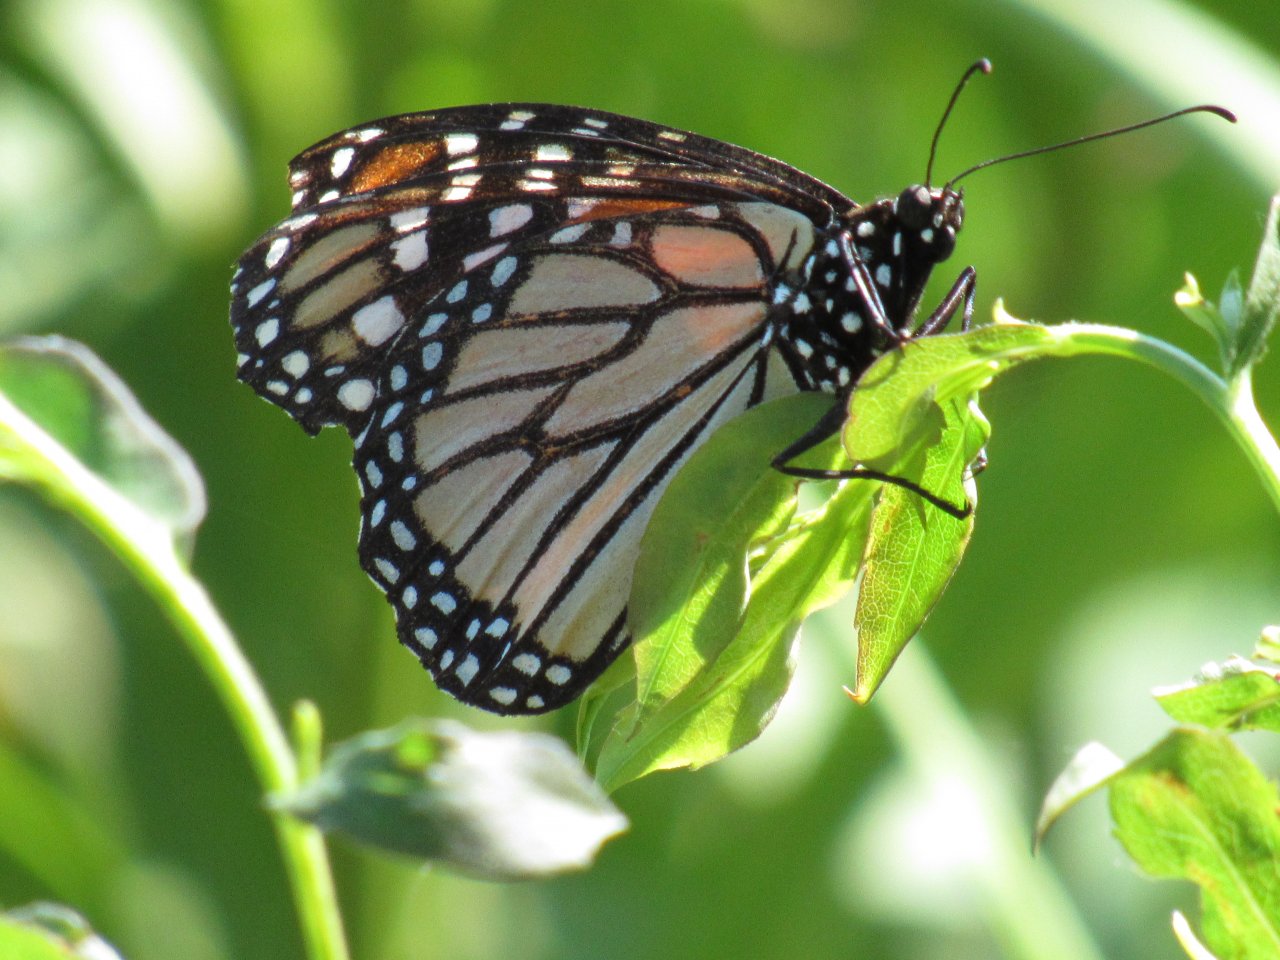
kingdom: Animalia
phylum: Arthropoda
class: Insecta
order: Lepidoptera
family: Nymphalidae
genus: Danaus
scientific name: Danaus plexippus
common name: Monarch
